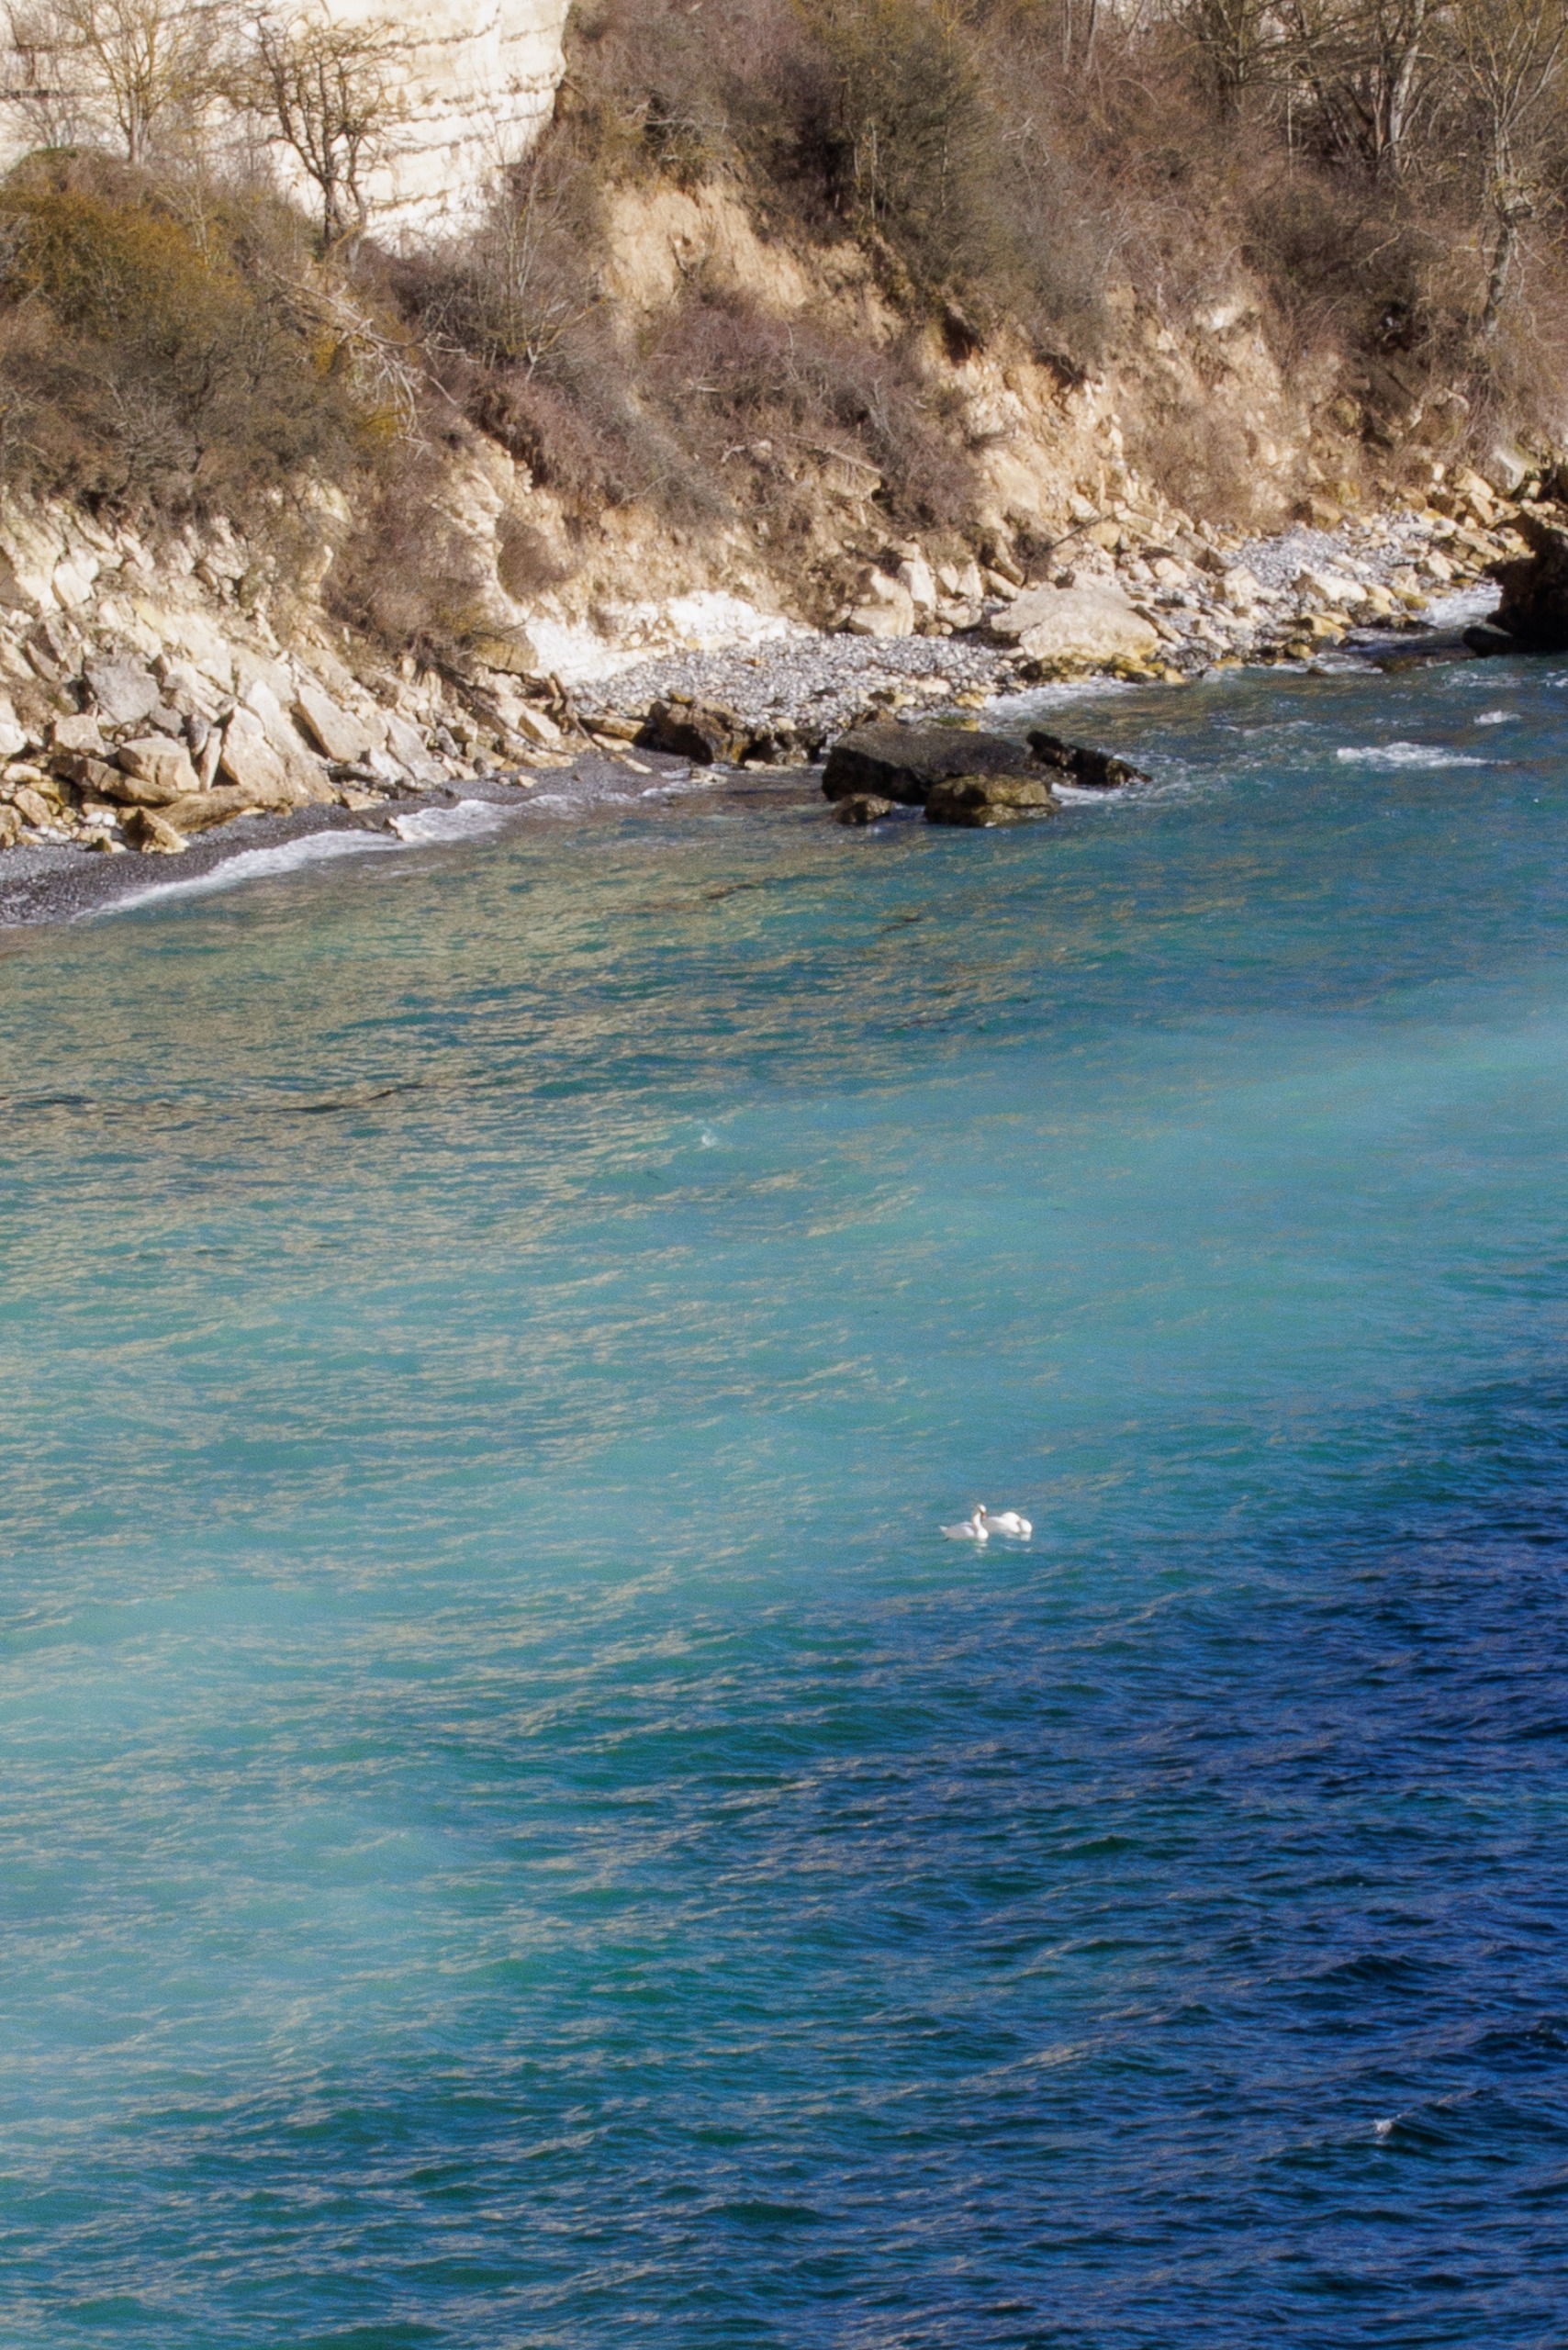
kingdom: Animalia
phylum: Chordata
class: Aves
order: Anseriformes
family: Anatidae
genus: Cygnus
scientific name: Cygnus olor
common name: Knopsvane
